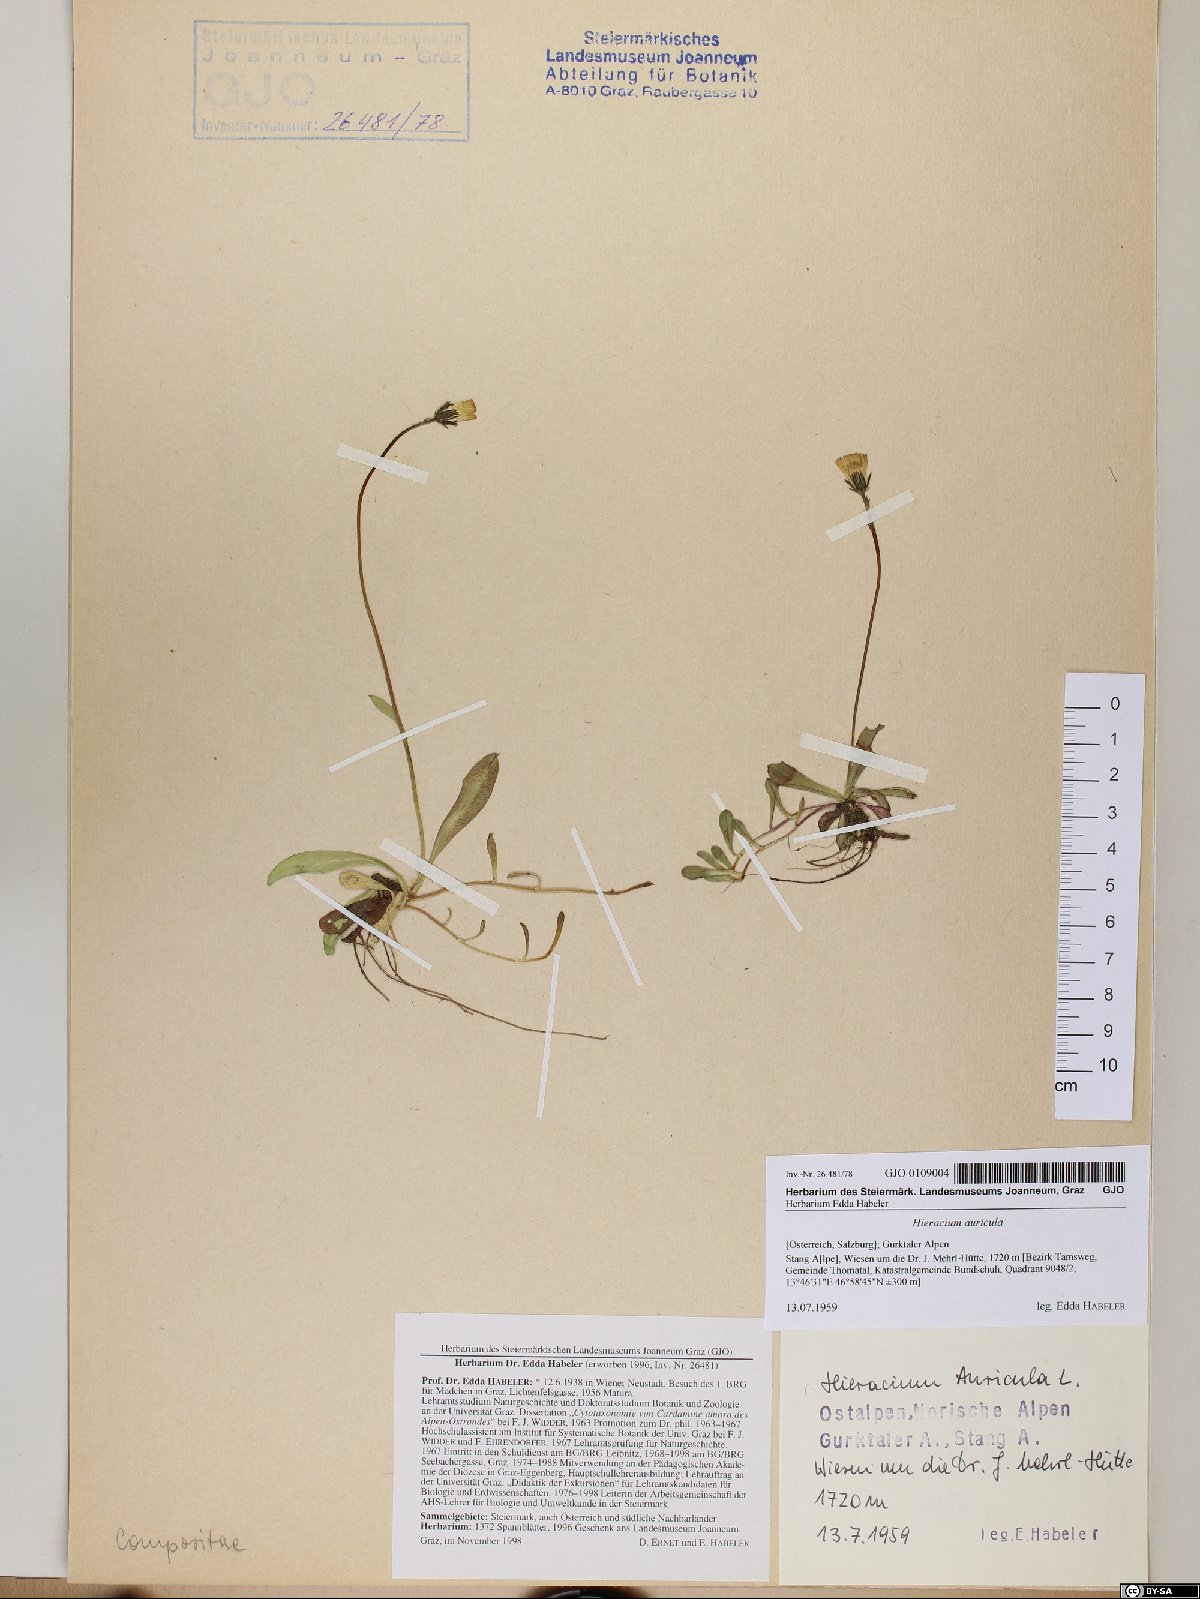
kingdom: Plantae
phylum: Tracheophyta
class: Magnoliopsida
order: Asterales
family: Asteraceae
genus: Hieracium
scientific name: Hieracium auricula
